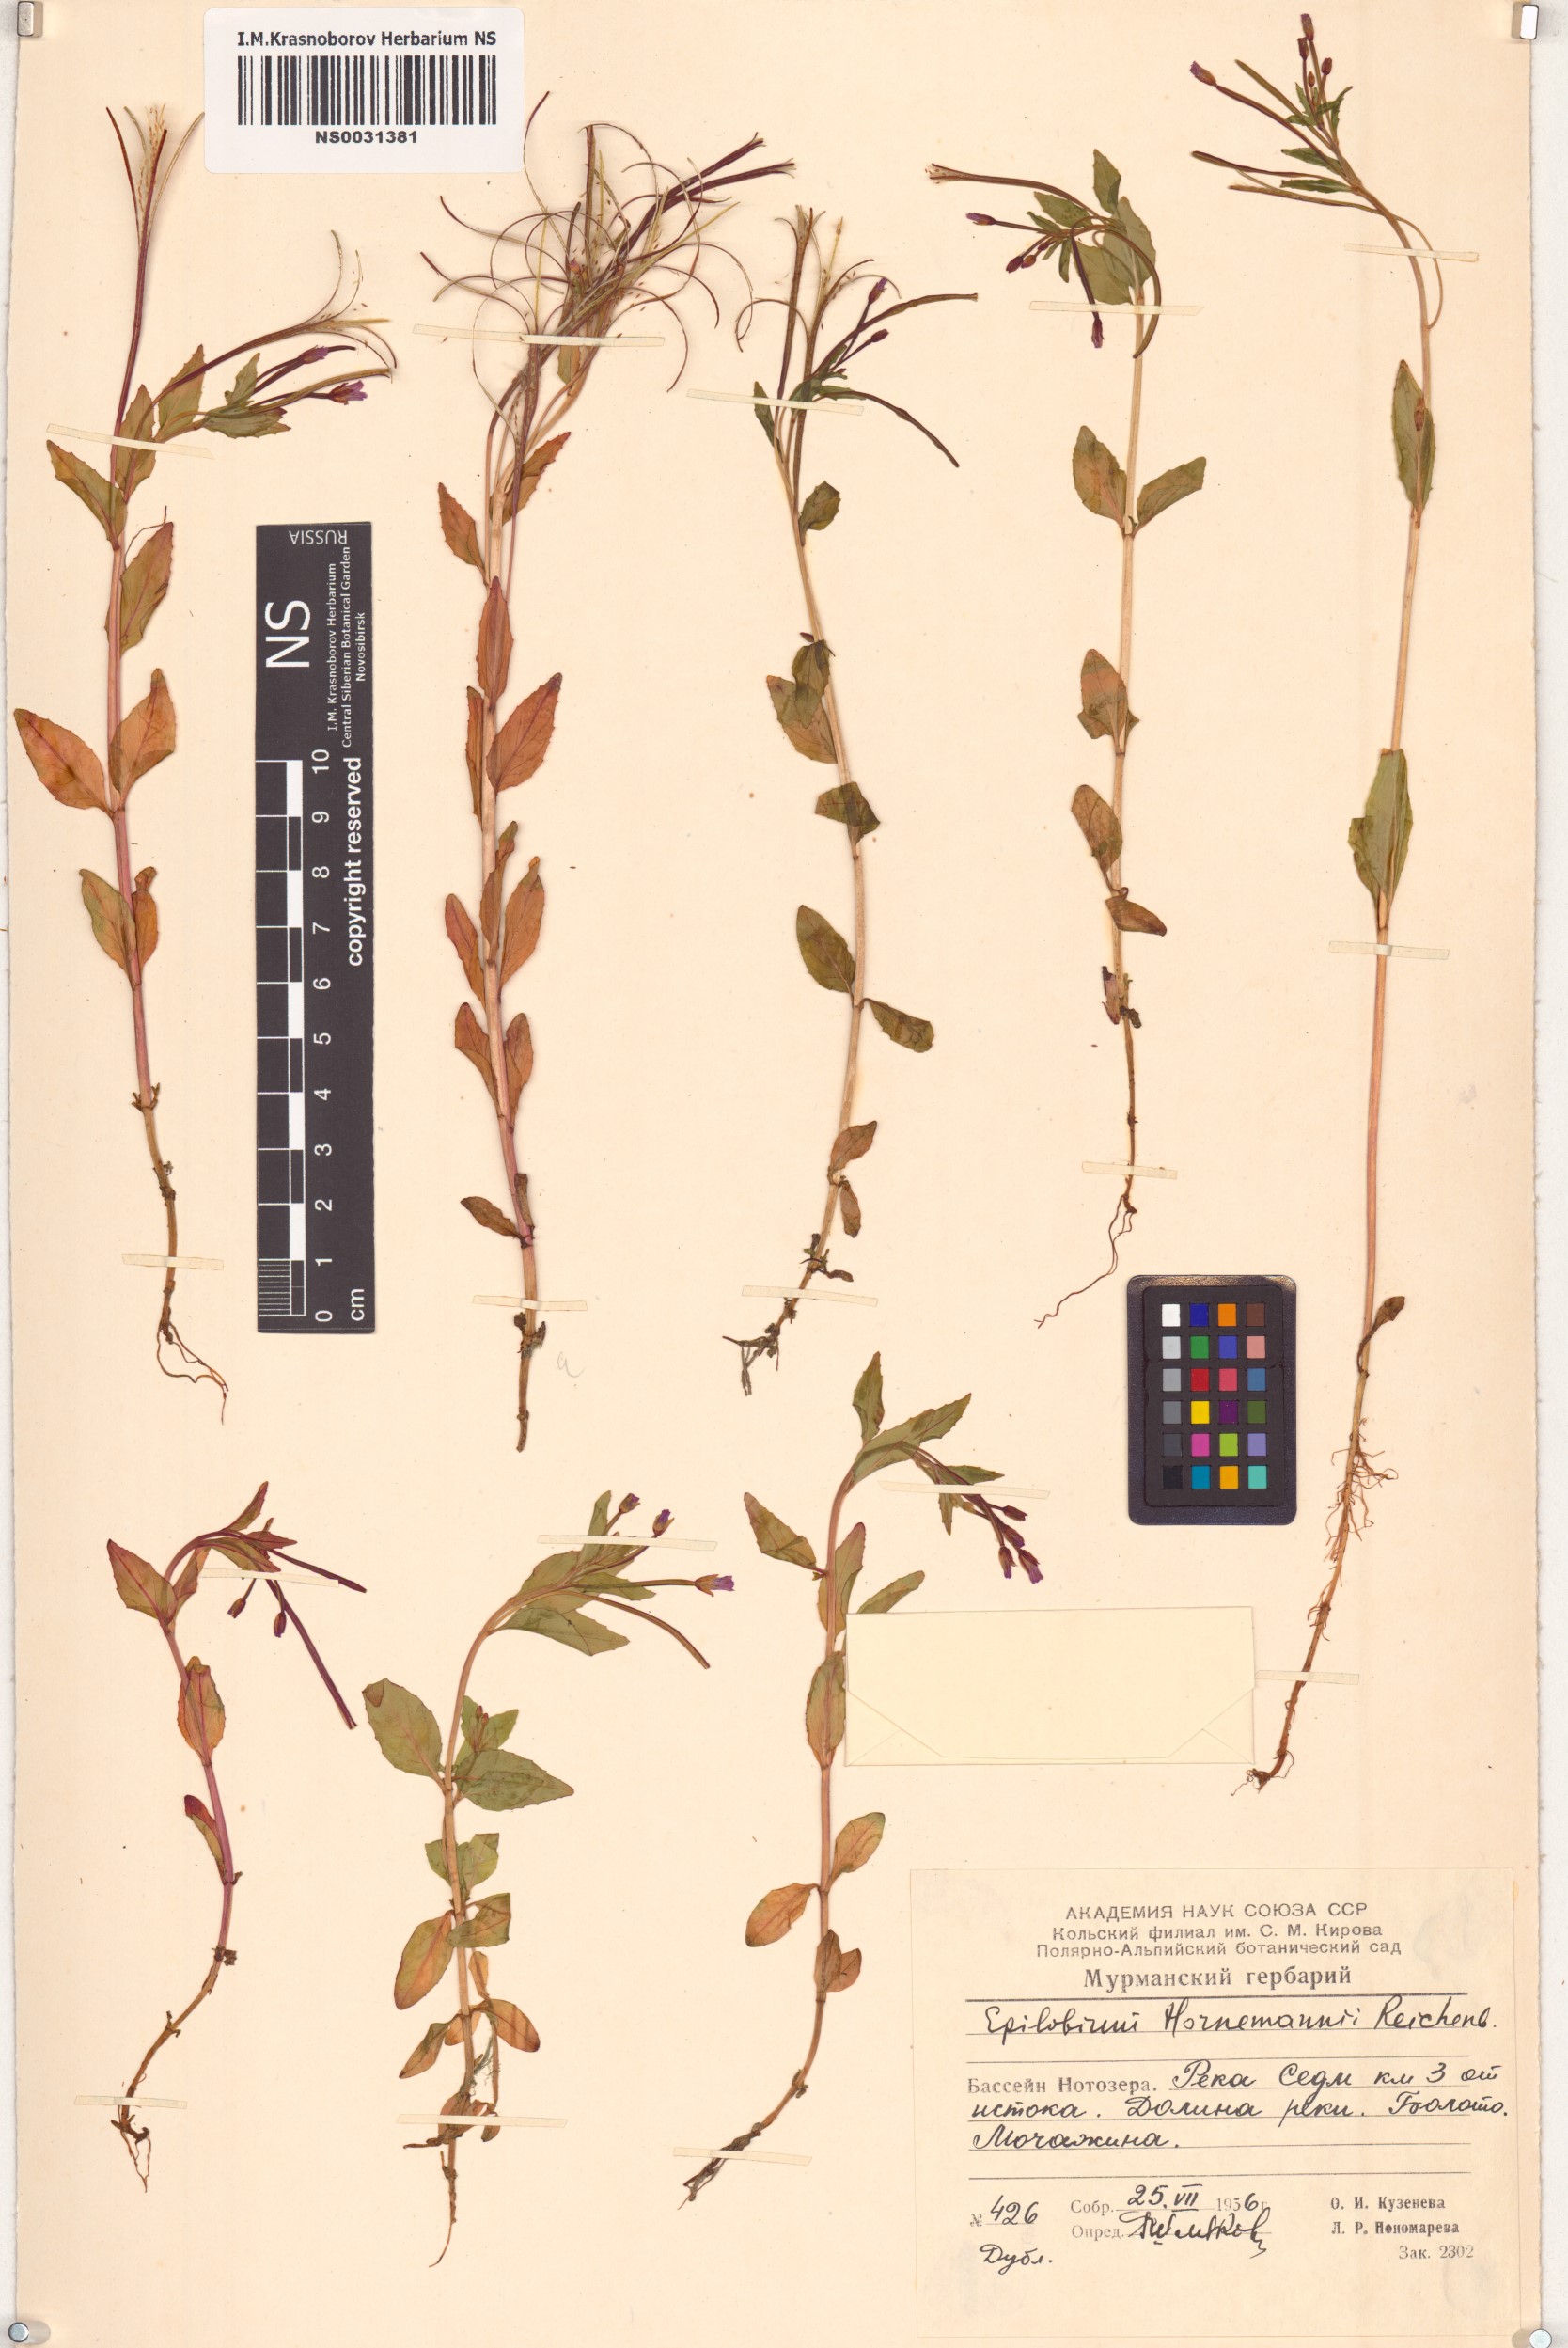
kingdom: Plantae
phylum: Tracheophyta
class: Magnoliopsida
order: Myrtales
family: Onagraceae
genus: Epilobium
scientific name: Epilobium hornemannii
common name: Hornemann's willowherb
